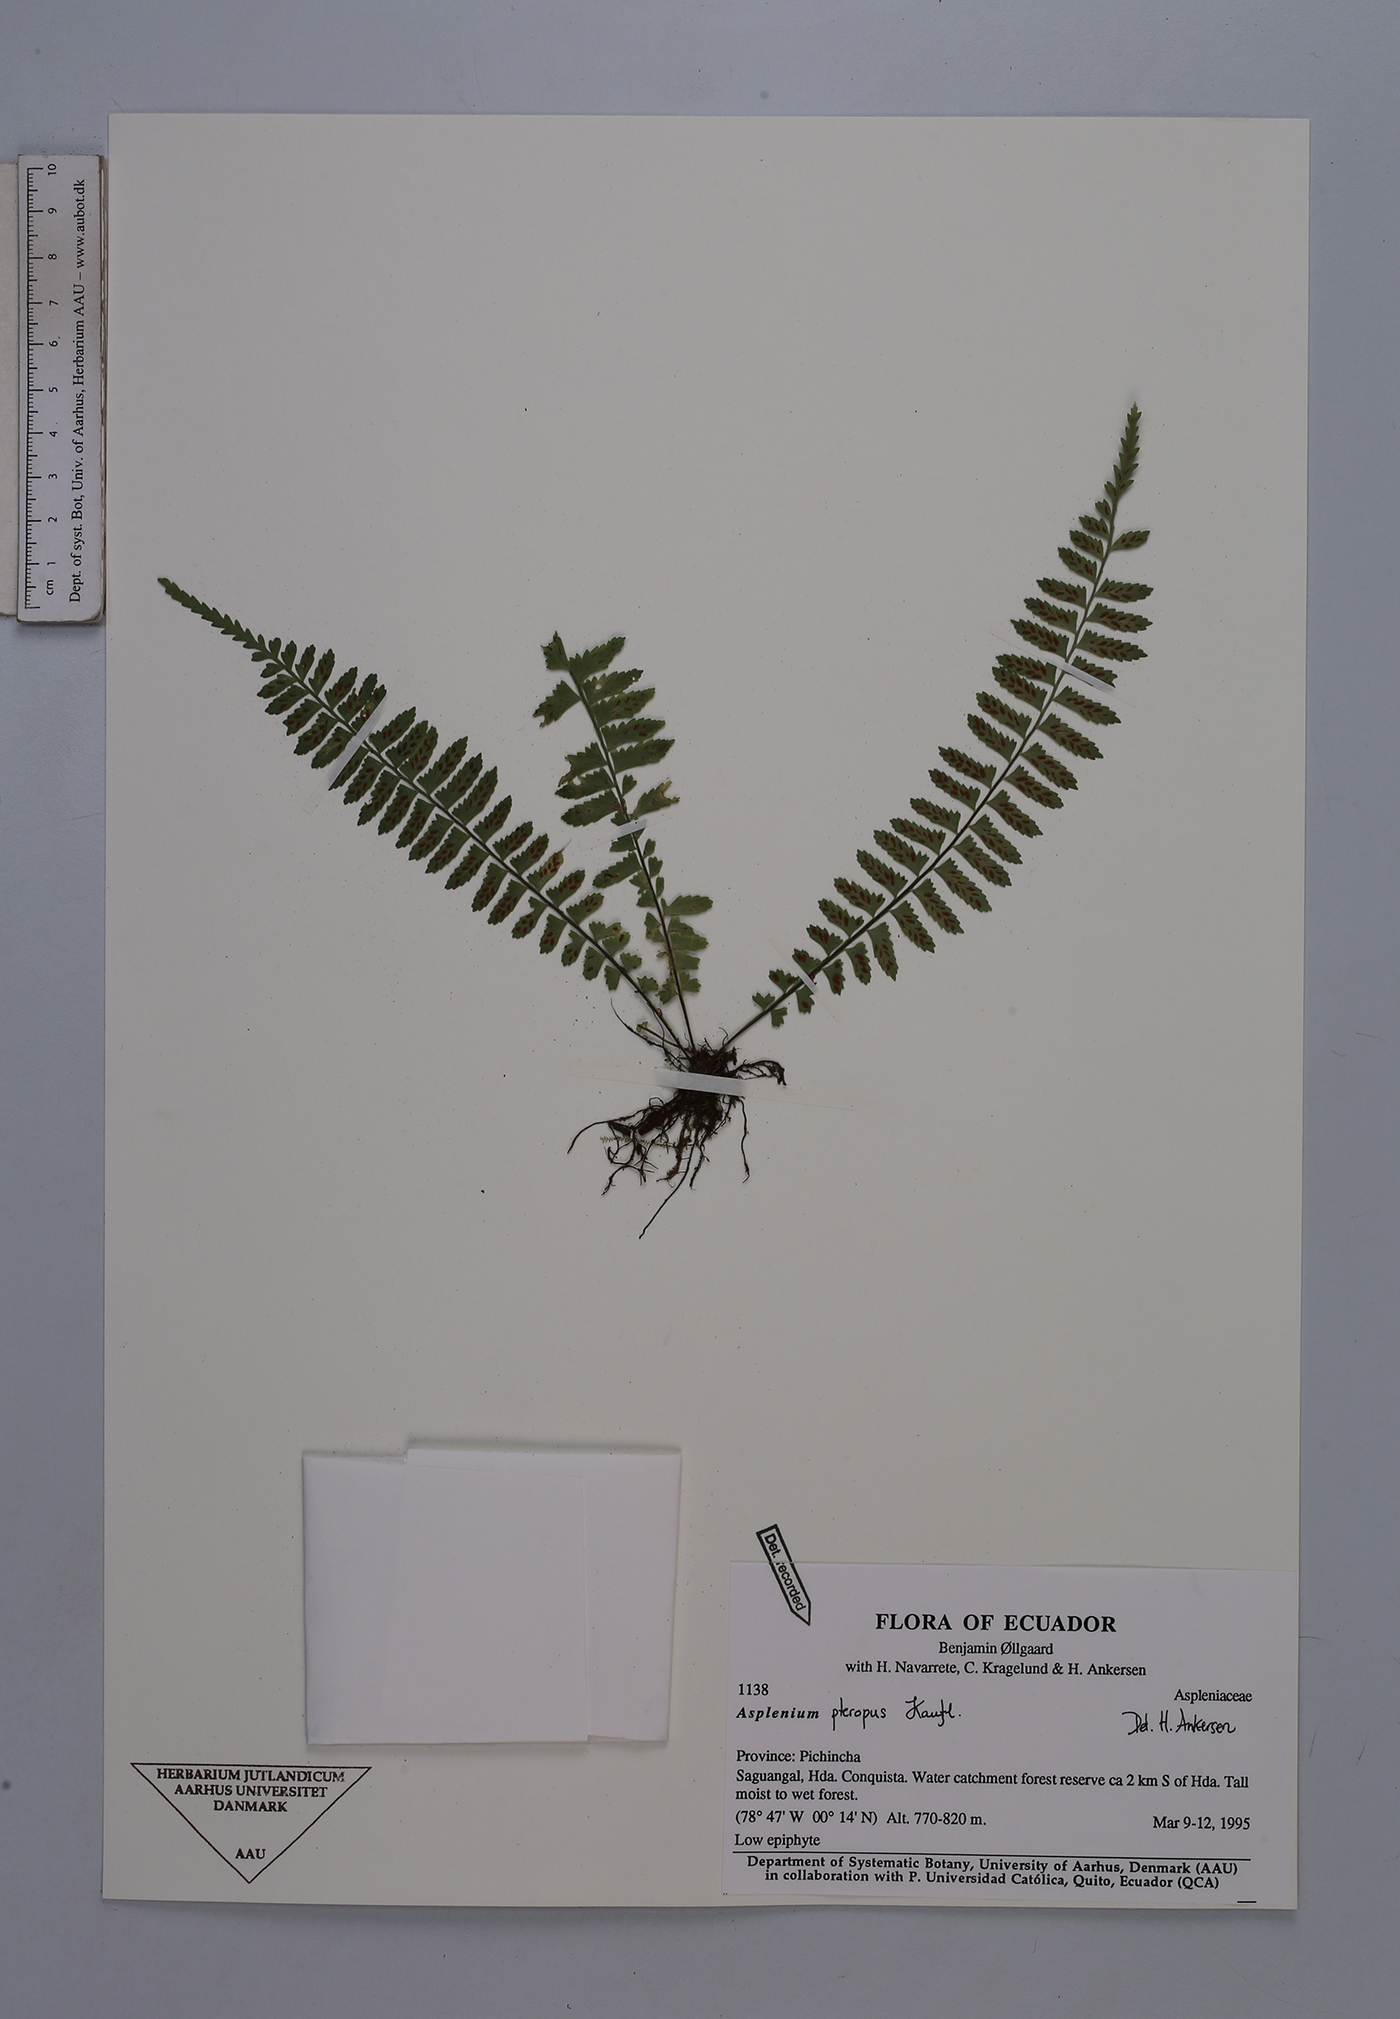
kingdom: Plantae
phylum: Tracheophyta
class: Polypodiopsida
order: Polypodiales
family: Aspleniaceae
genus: Asplenium
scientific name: Asplenium pteropus
